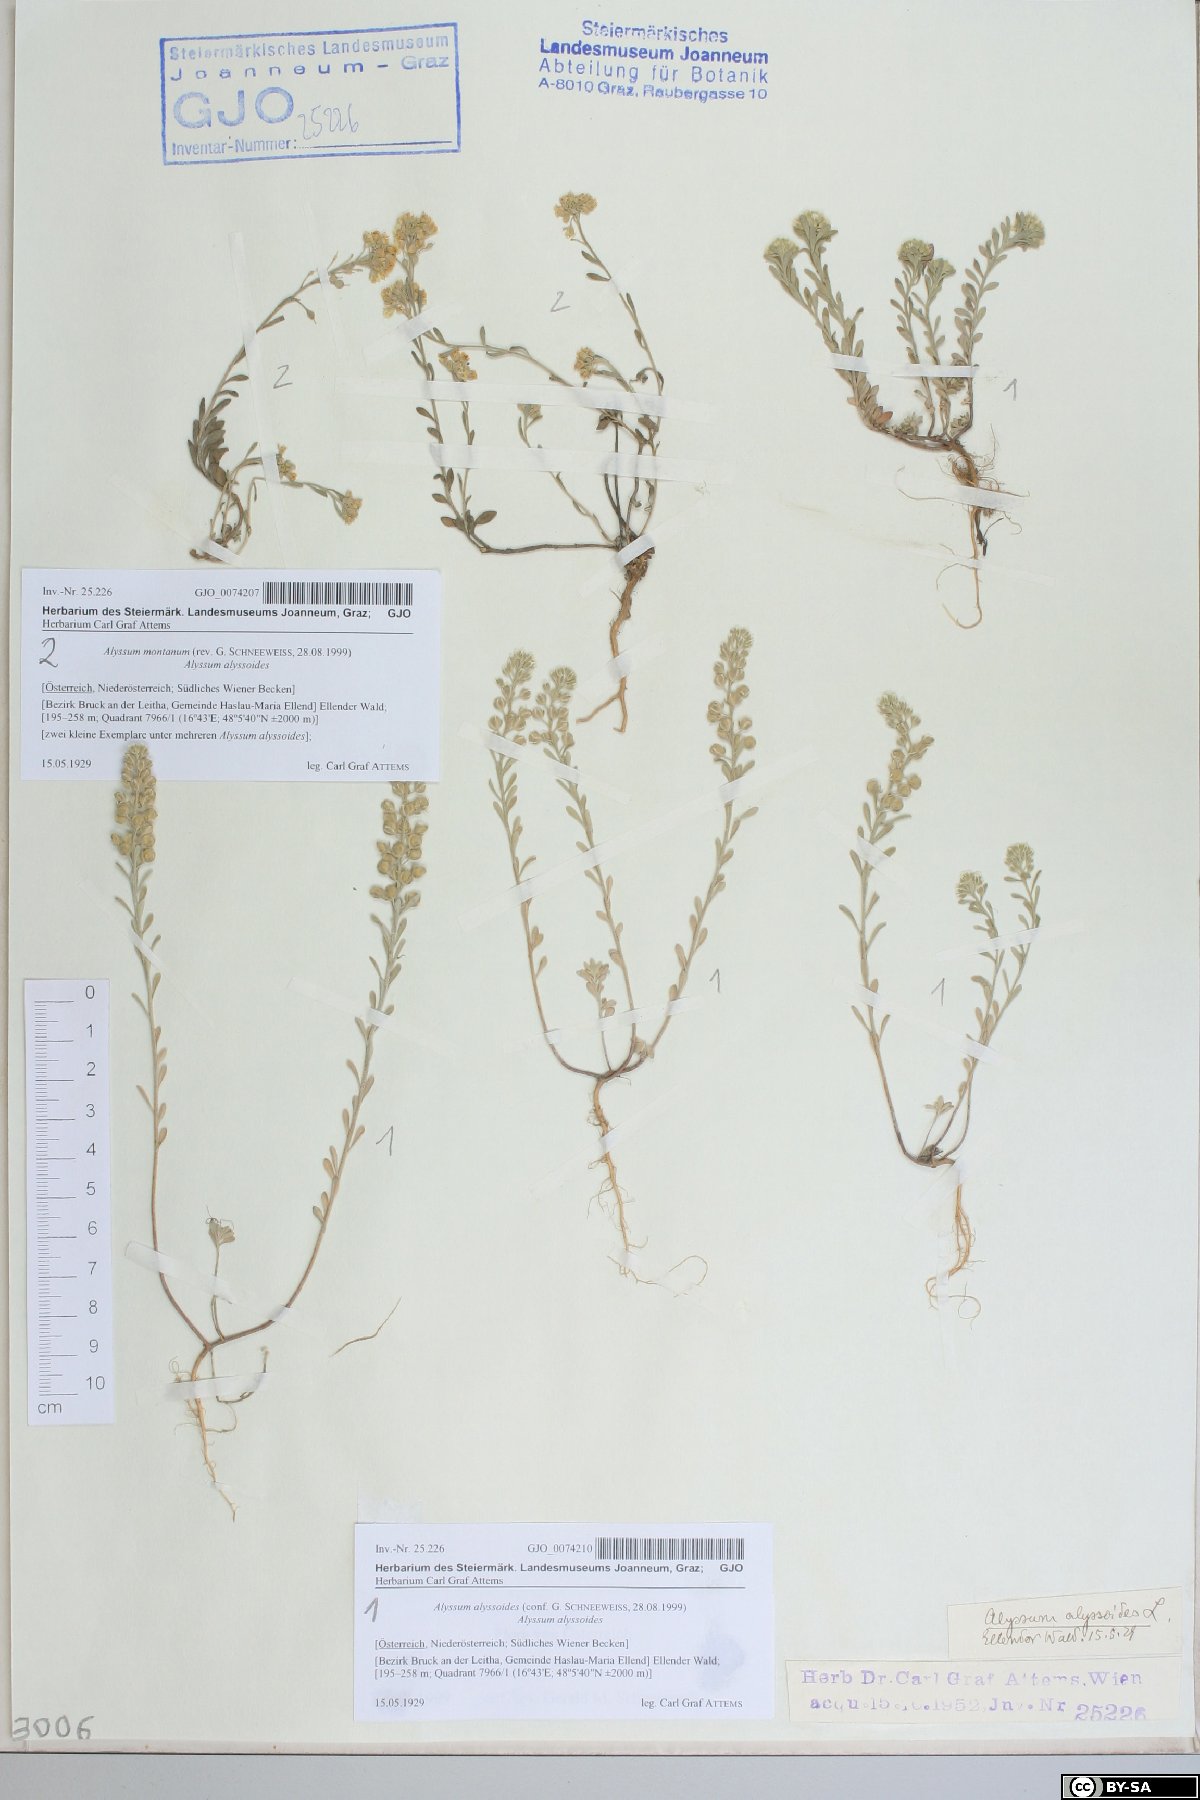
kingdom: Plantae
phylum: Tracheophyta
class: Magnoliopsida
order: Brassicales
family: Brassicaceae
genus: Alyssum
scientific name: Alyssum montanum
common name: Mountain alison
